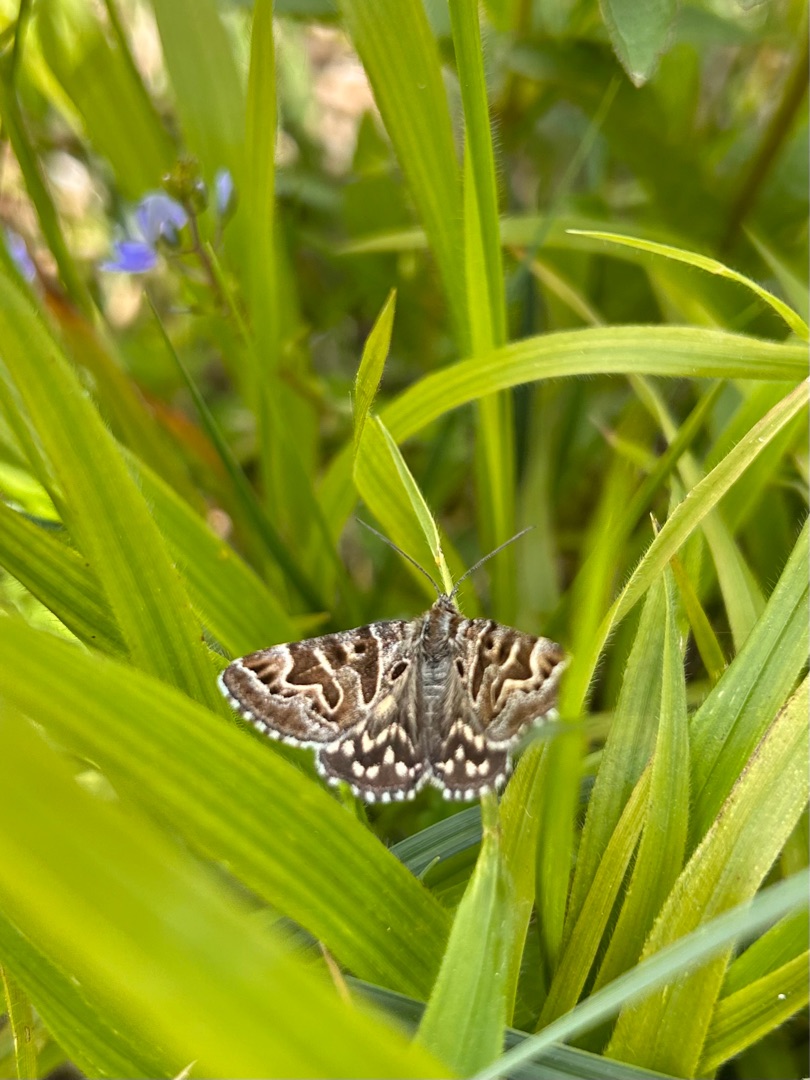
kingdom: Animalia
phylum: Arthropoda
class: Insecta
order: Lepidoptera
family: Erebidae
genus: Callistege
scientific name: Callistege mi
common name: Marmoreret kløverugle
